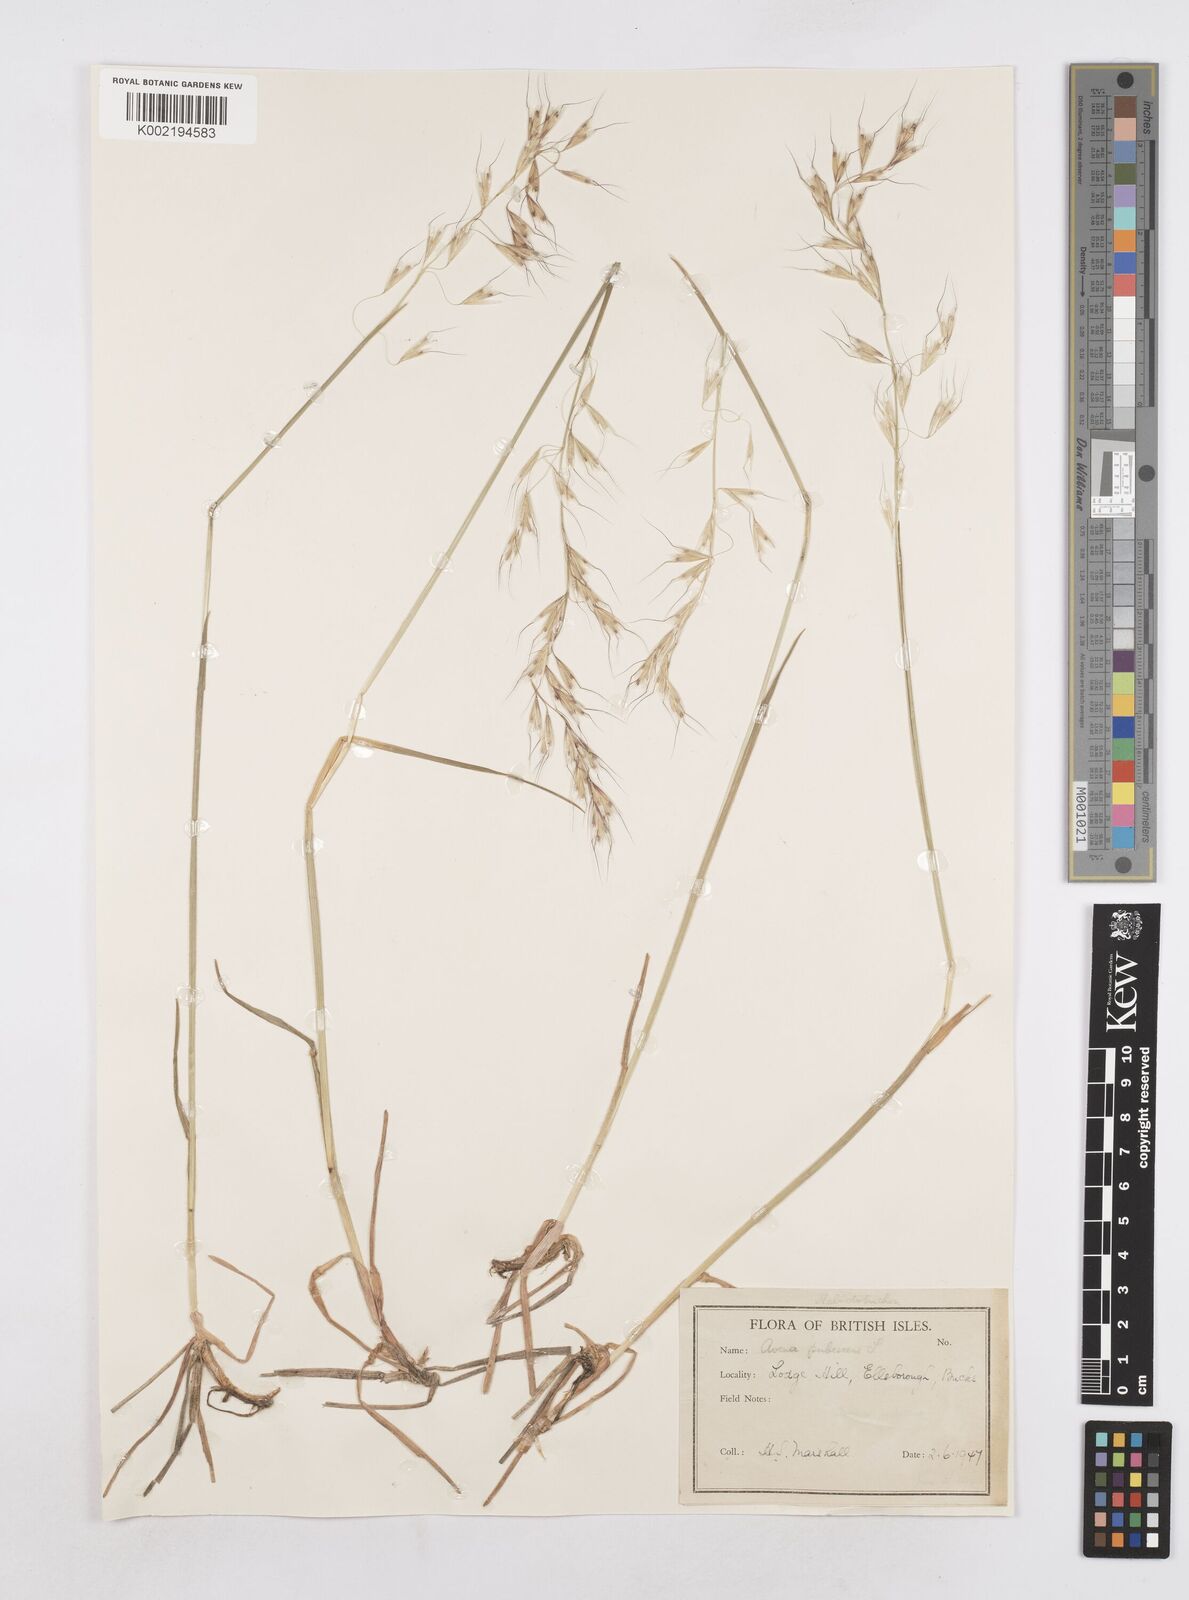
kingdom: Plantae
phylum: Tracheophyta
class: Liliopsida
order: Poales
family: Poaceae
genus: Avenula
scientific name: Avenula pubescens
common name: Downy alpine oatgrass
